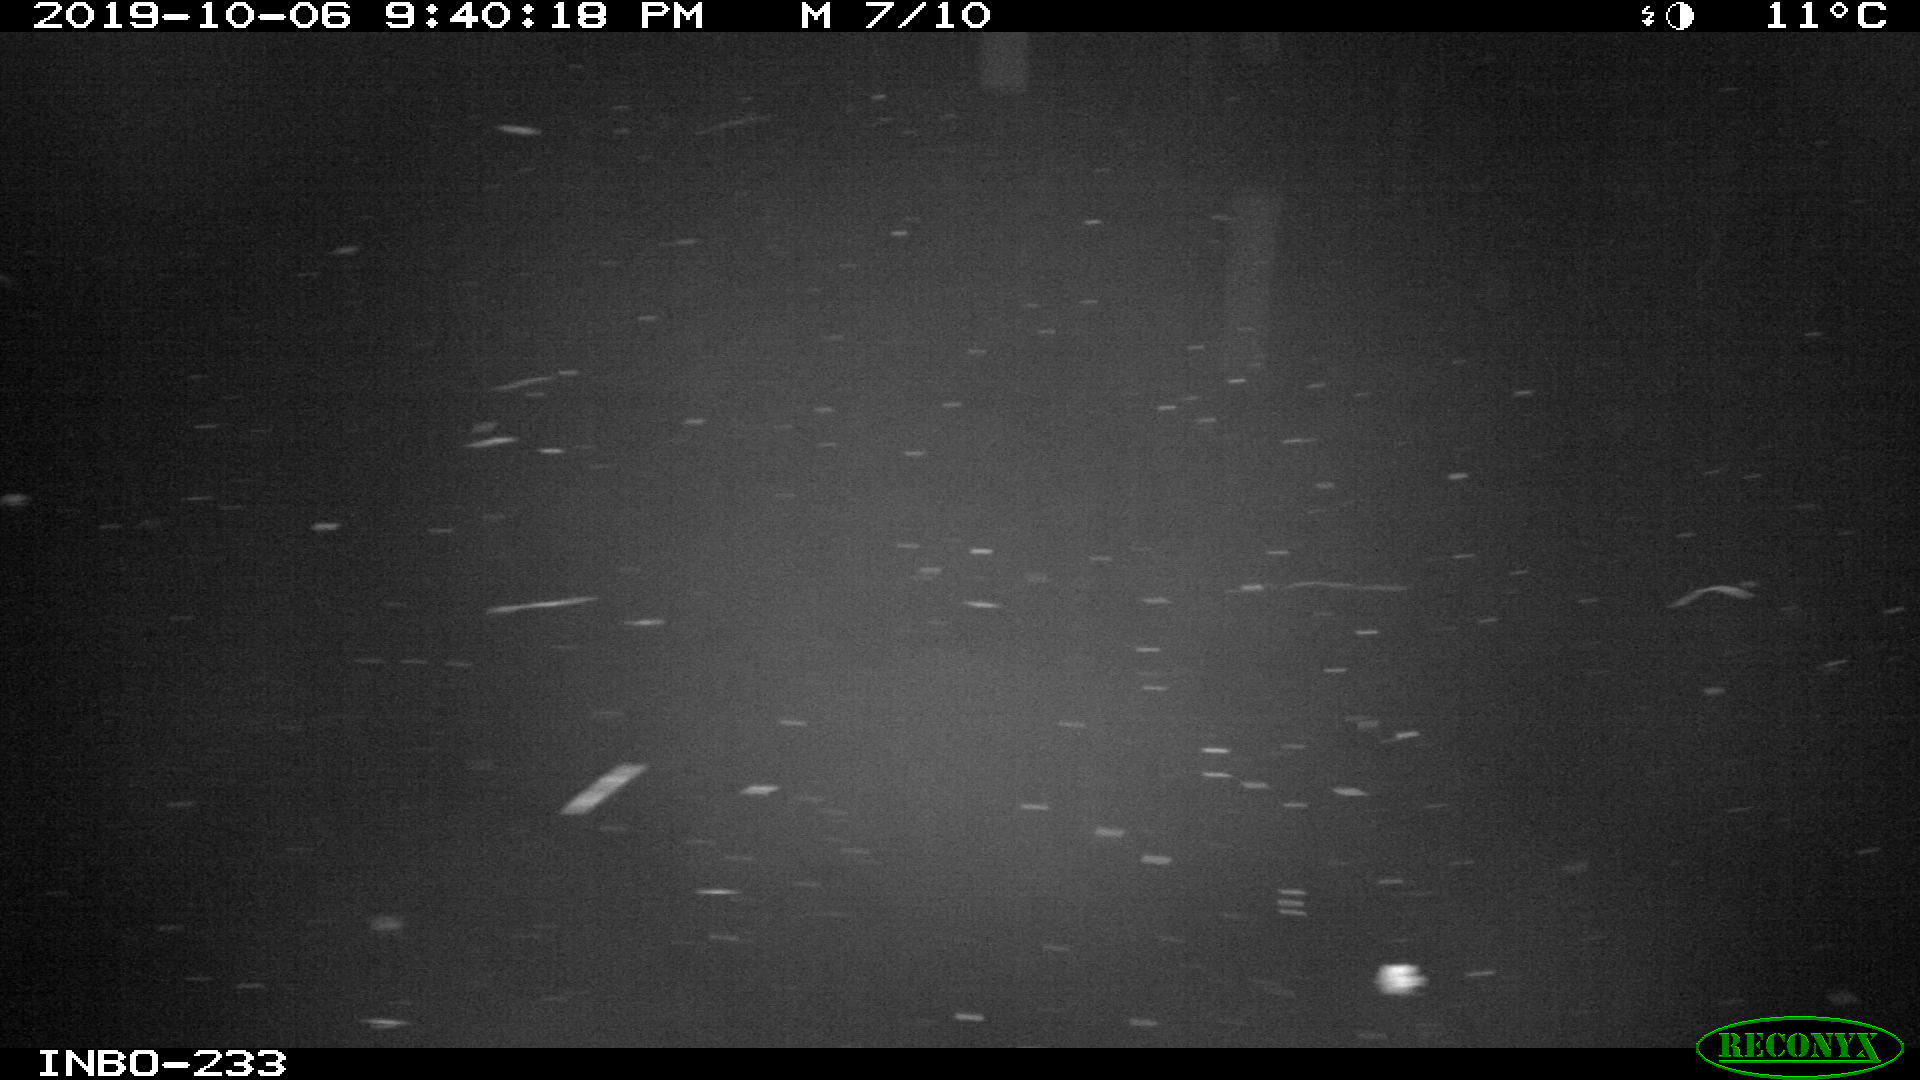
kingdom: Animalia
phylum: Chordata
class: Aves
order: Anseriformes
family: Anatidae
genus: Anas
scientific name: Anas platyrhynchos
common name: Mallard
